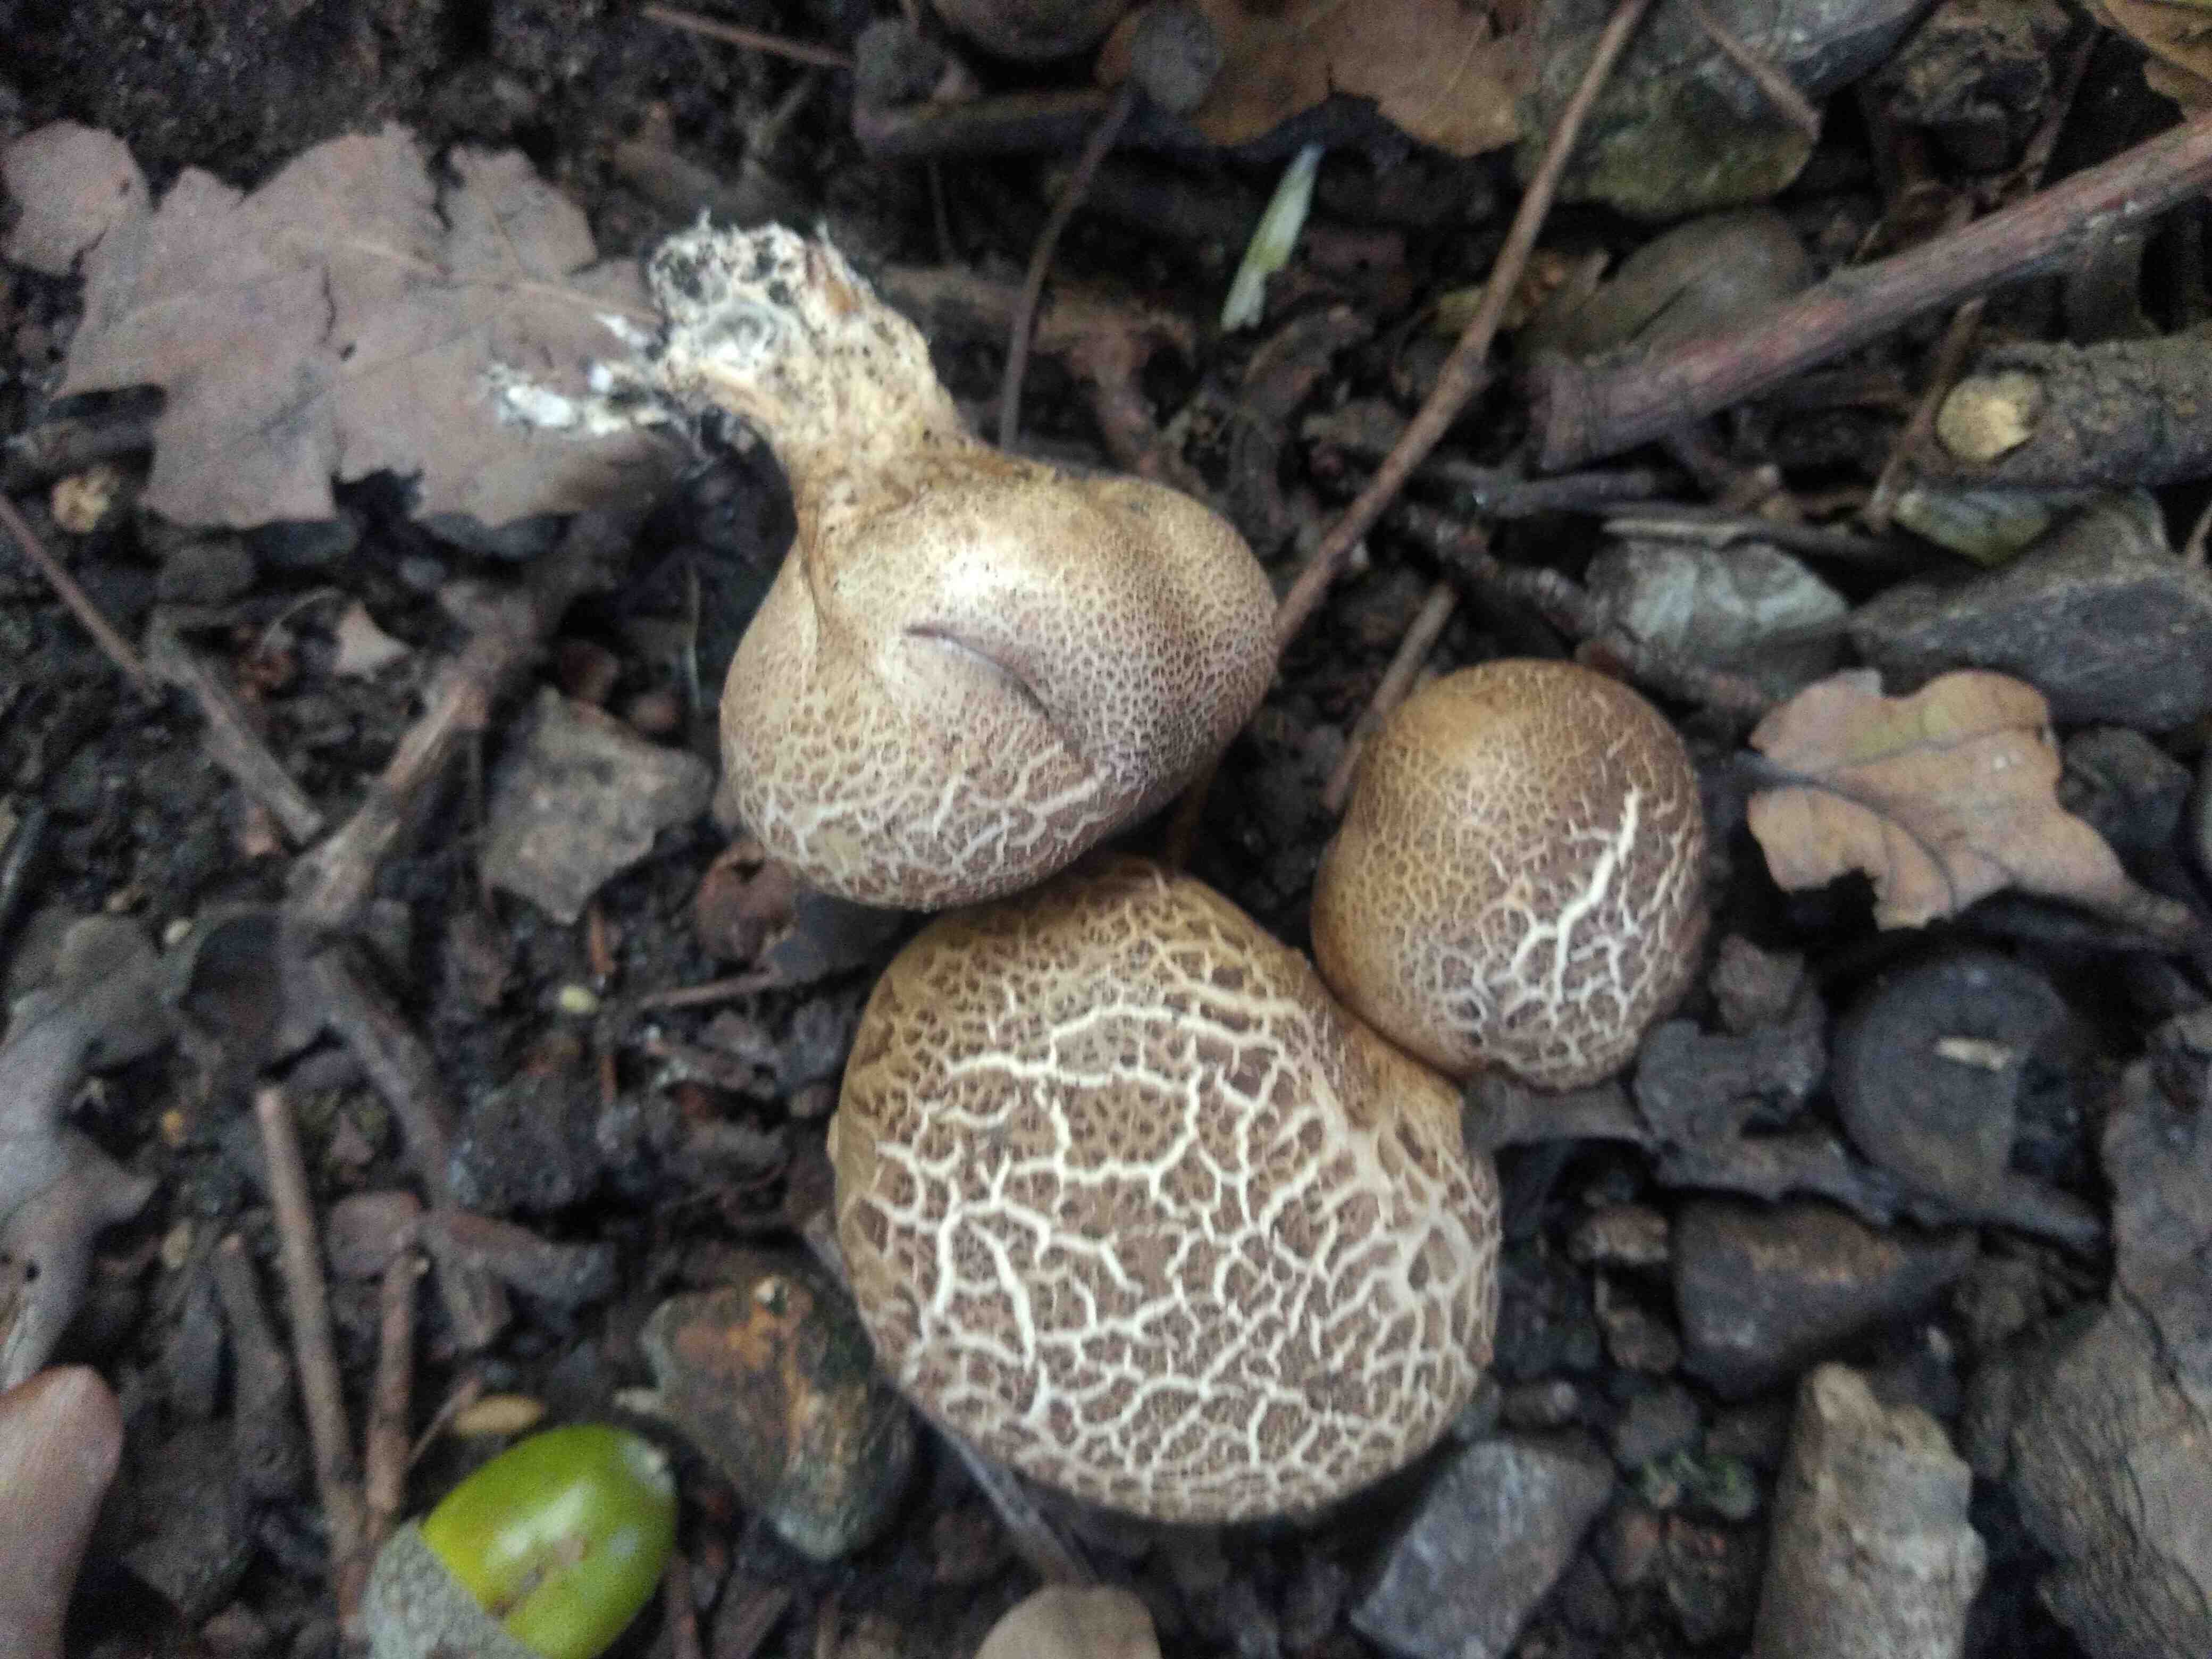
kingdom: Fungi
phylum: Basidiomycota
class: Agaricomycetes
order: Boletales
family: Sclerodermataceae
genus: Scleroderma
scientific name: Scleroderma
